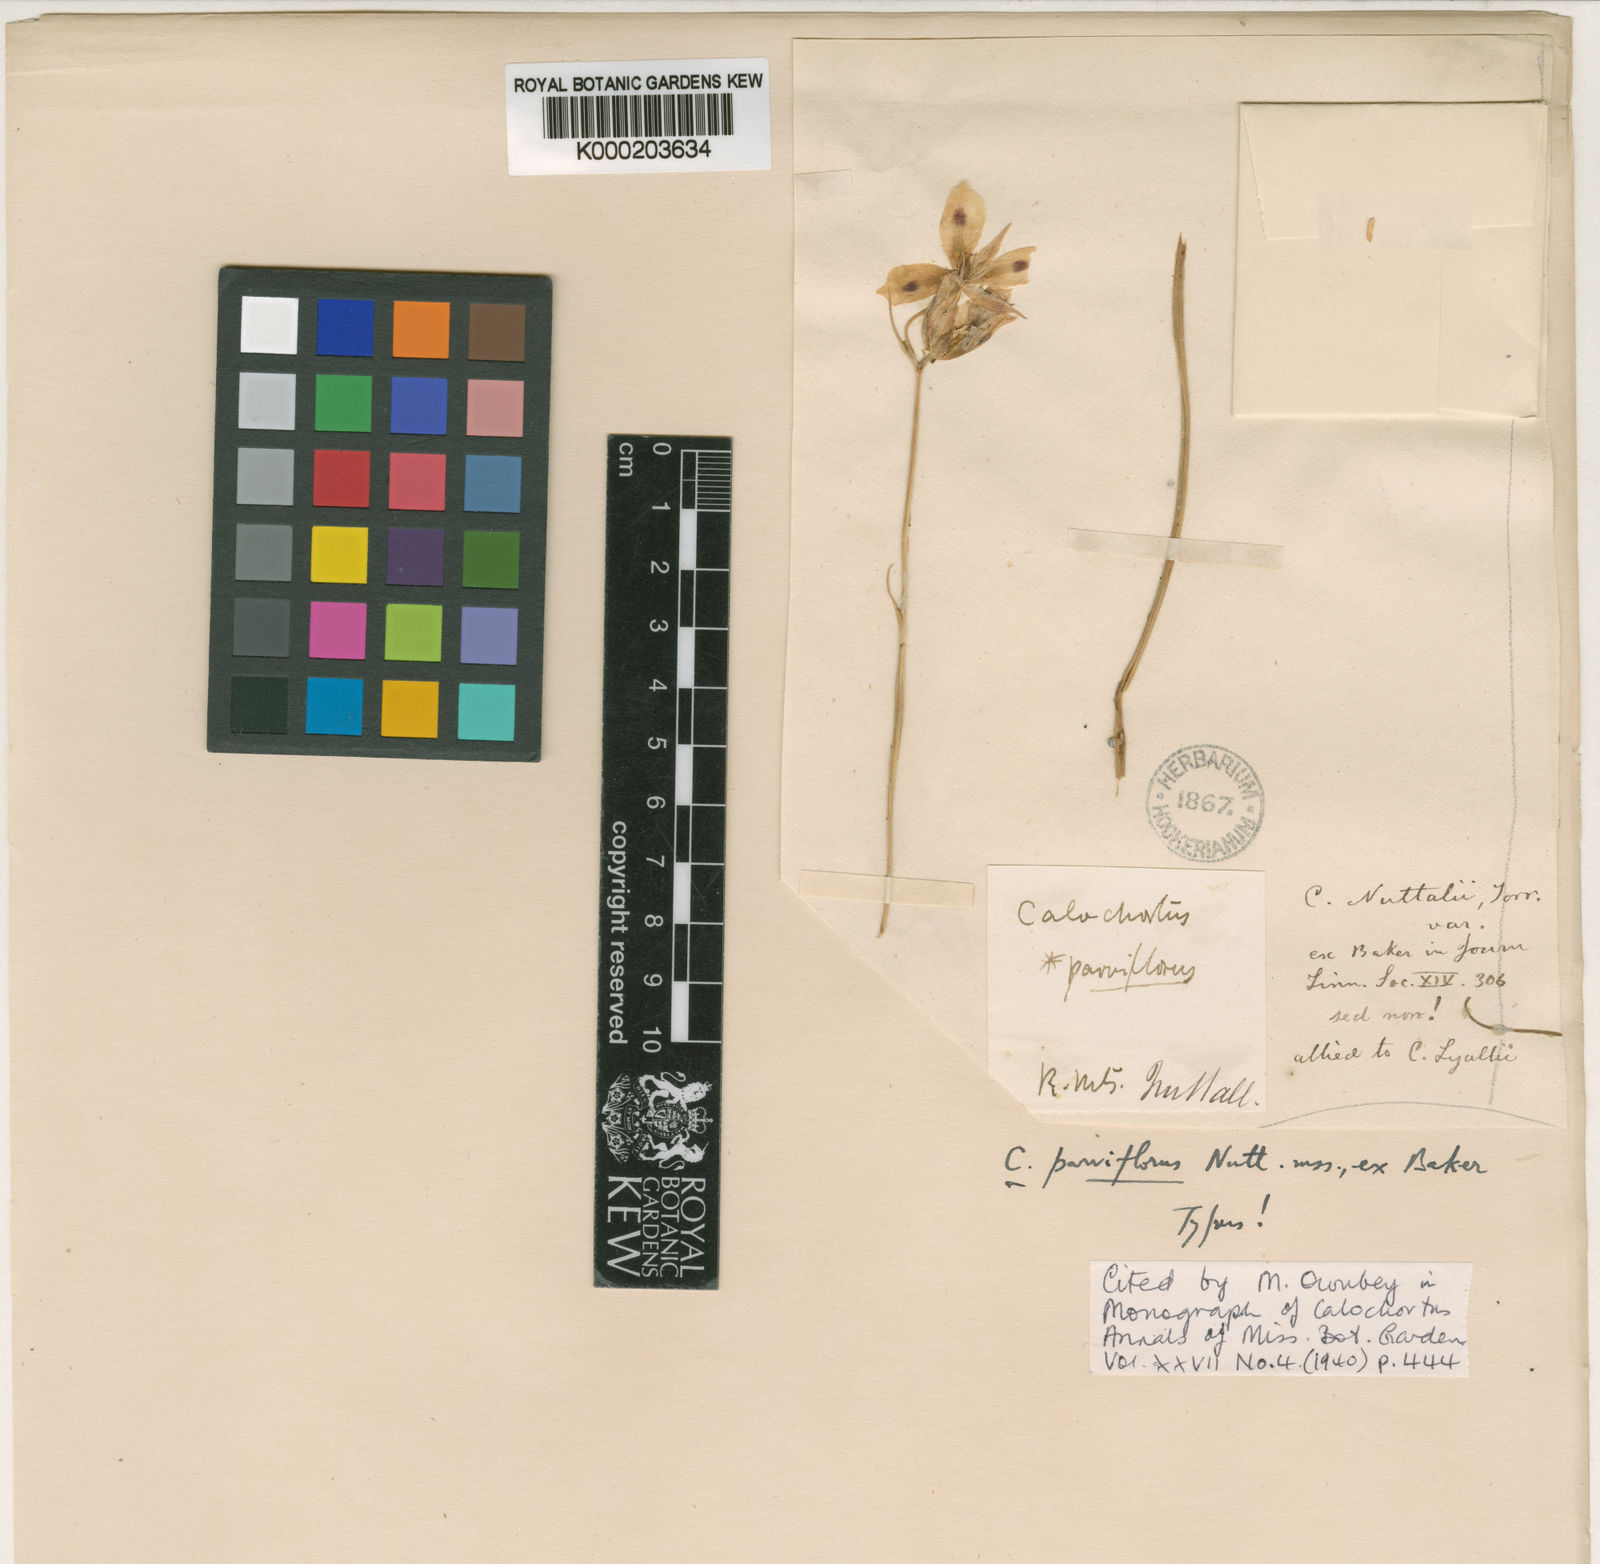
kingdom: Plantae
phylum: Tracheophyta
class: Liliopsida
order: Liliales
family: Liliaceae
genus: Calochortus
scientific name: Calochortus nitidus
